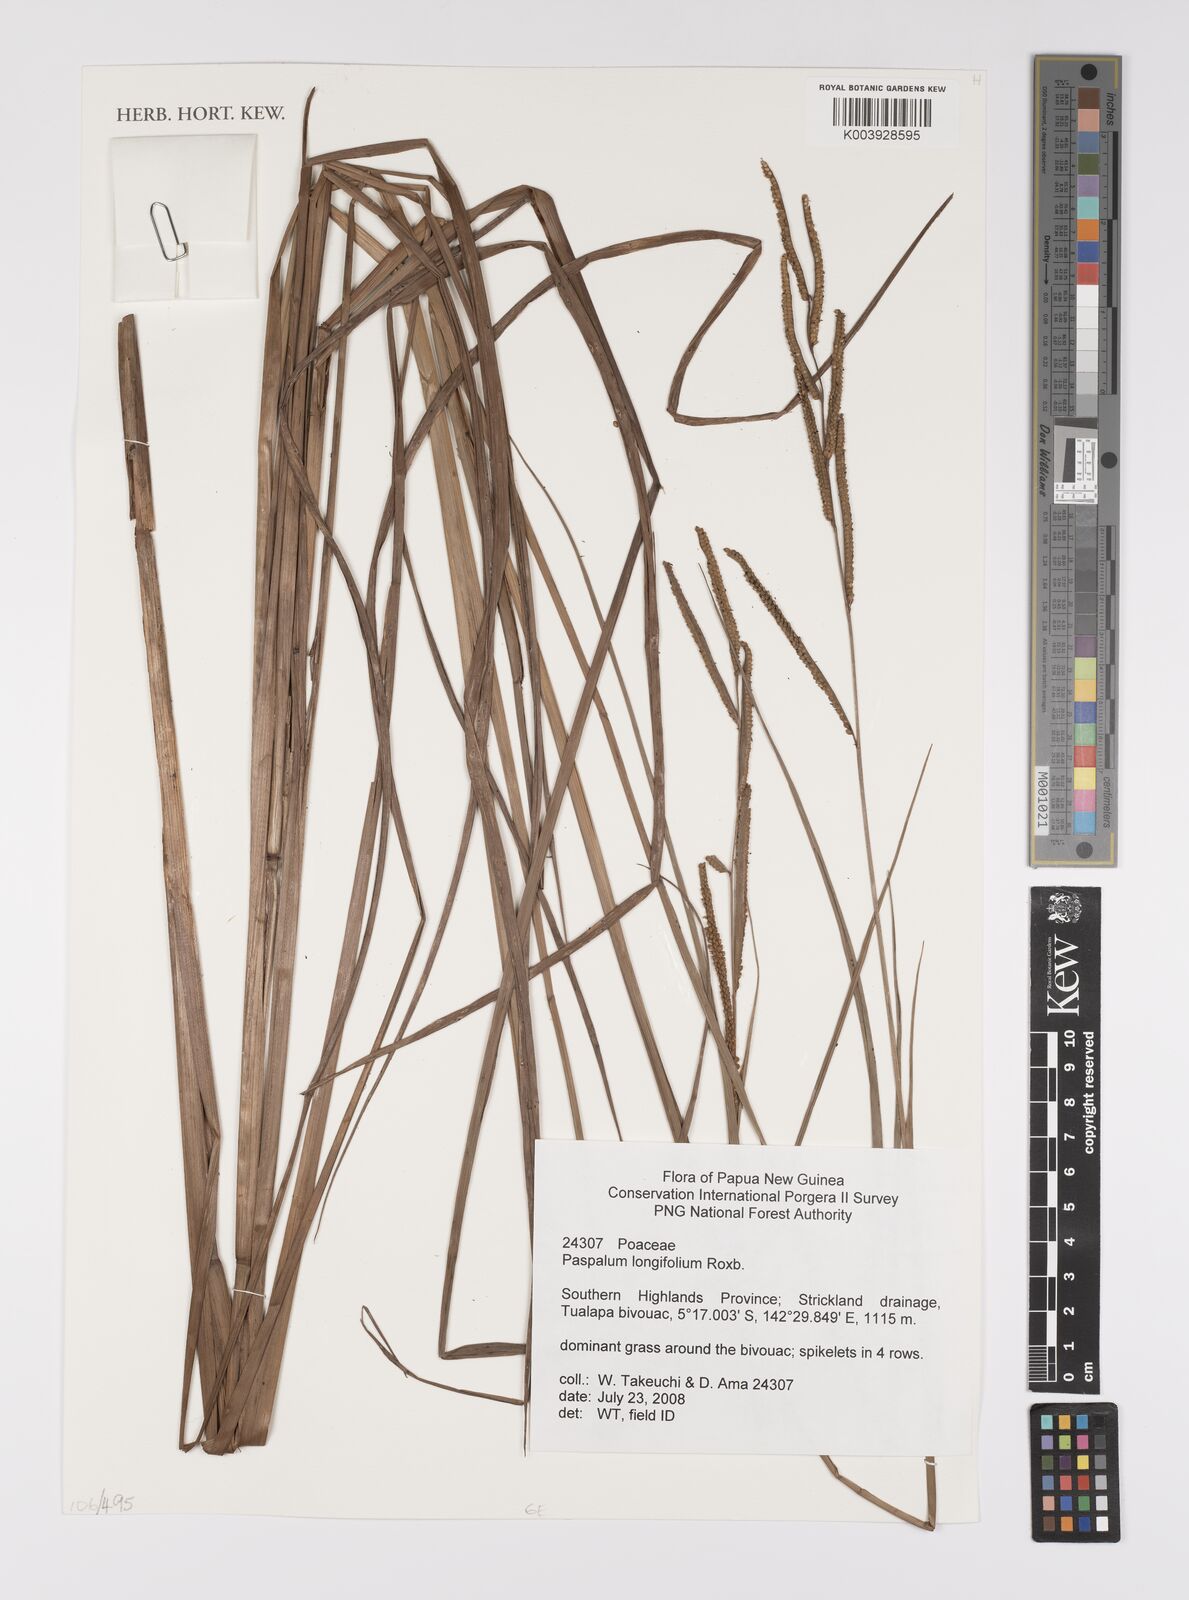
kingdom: Plantae
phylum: Tracheophyta
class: Liliopsida
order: Poales
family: Poaceae
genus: Paspalum
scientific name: Paspalum sumatrense
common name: Long-leaved paspalum
